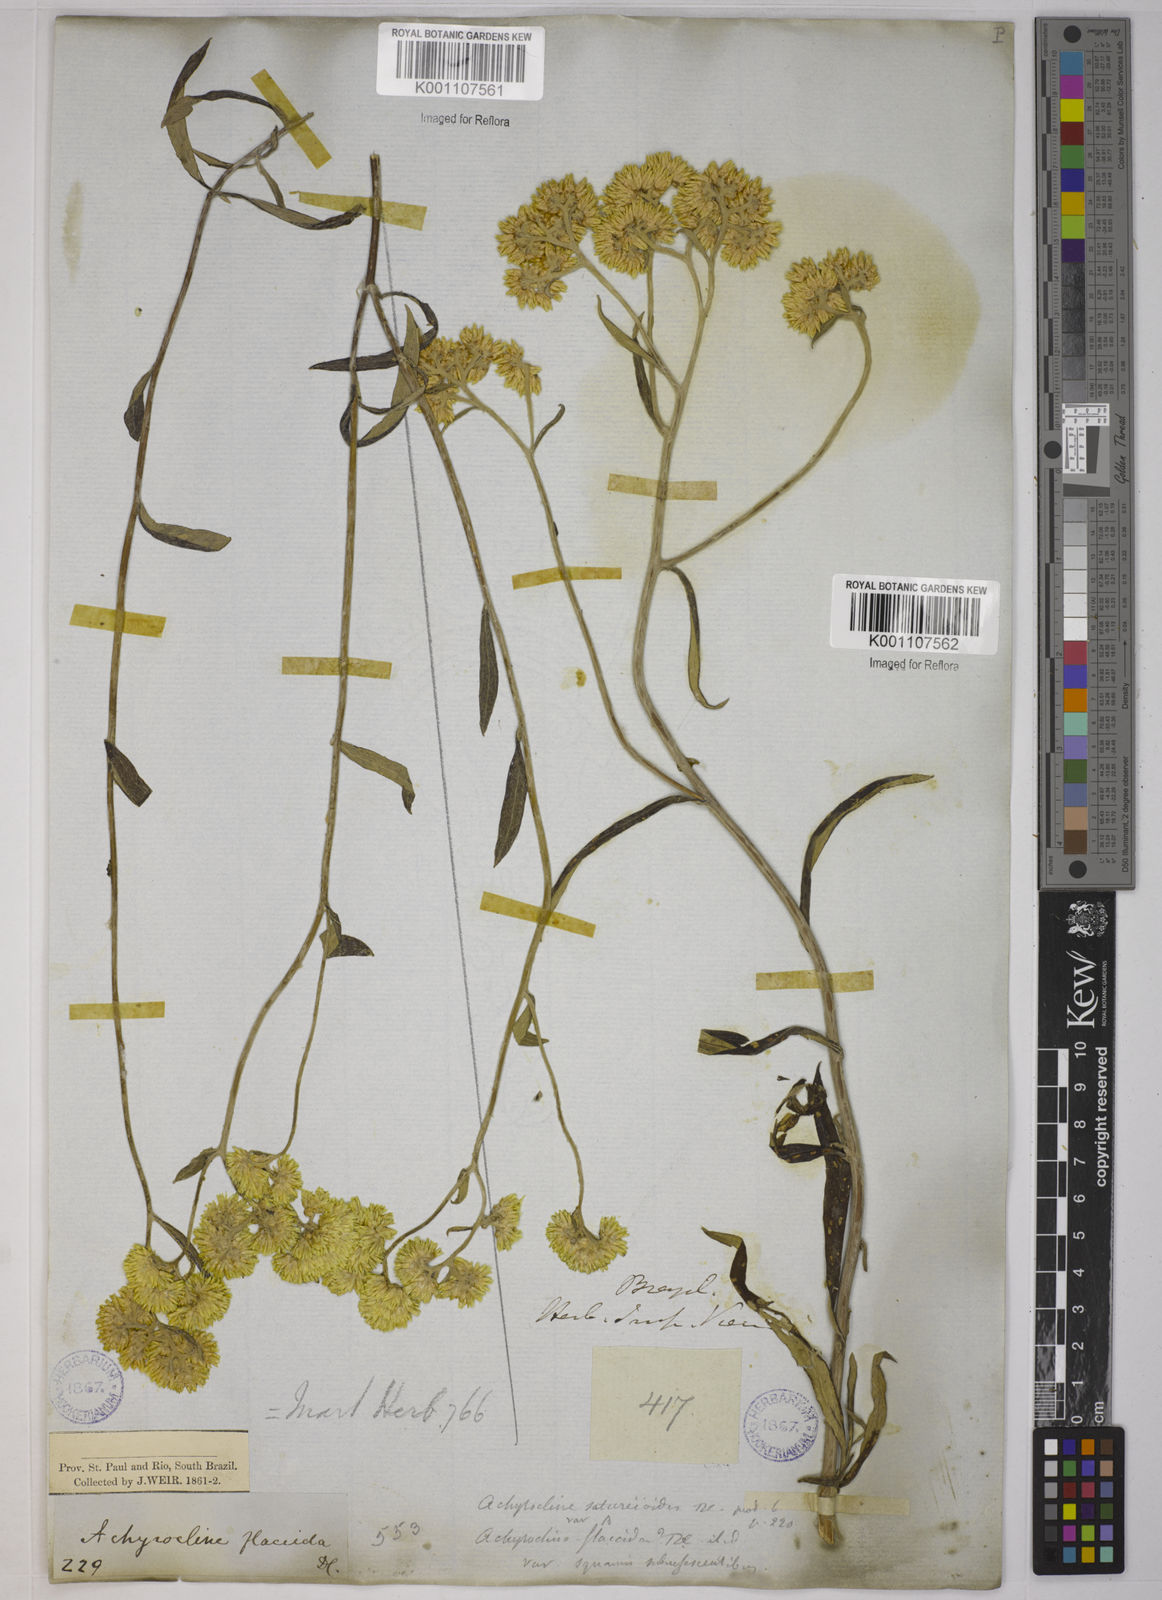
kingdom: Plantae
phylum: Tracheophyta
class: Magnoliopsida
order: Asterales
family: Asteraceae
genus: Achyrocline
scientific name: Achyrocline vargasiana
